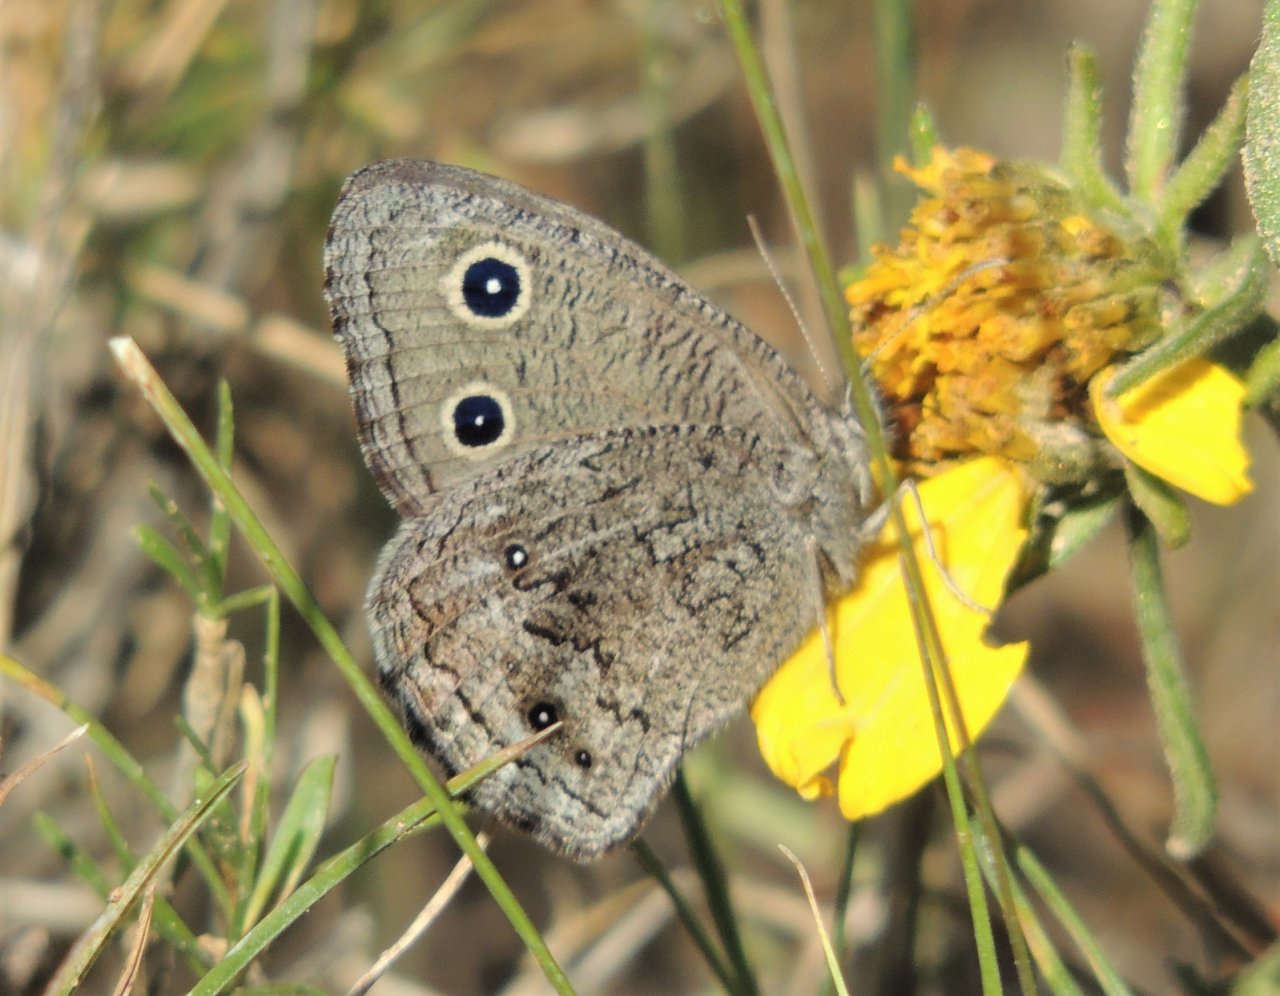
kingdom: Animalia
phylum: Arthropoda
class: Insecta
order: Lepidoptera
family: Nymphalidae
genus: Cercyonis
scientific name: Cercyonis oetus
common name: Small Wood-Nymph
